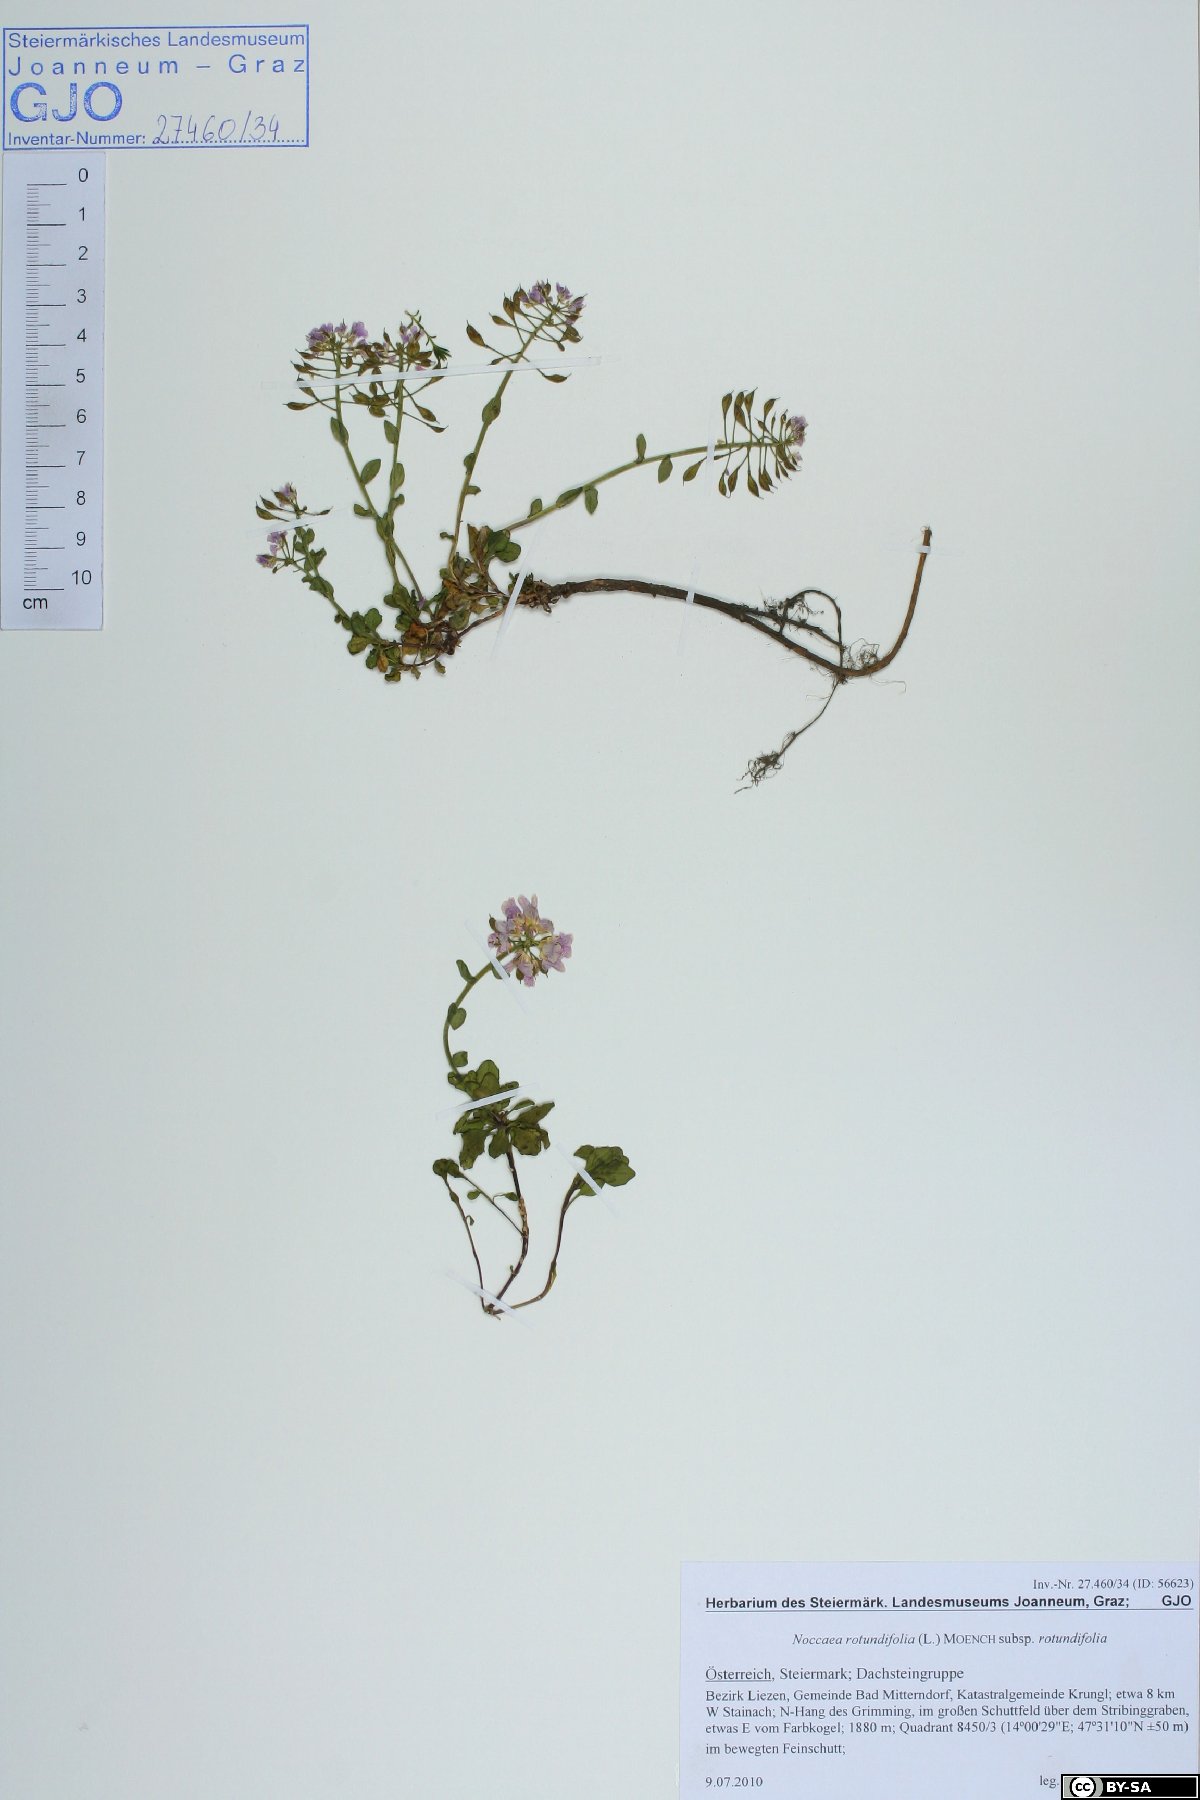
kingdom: Plantae
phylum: Tracheophyta
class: Magnoliopsida
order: Brassicales
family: Brassicaceae
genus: Noccaea
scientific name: Noccaea rotundifolia
